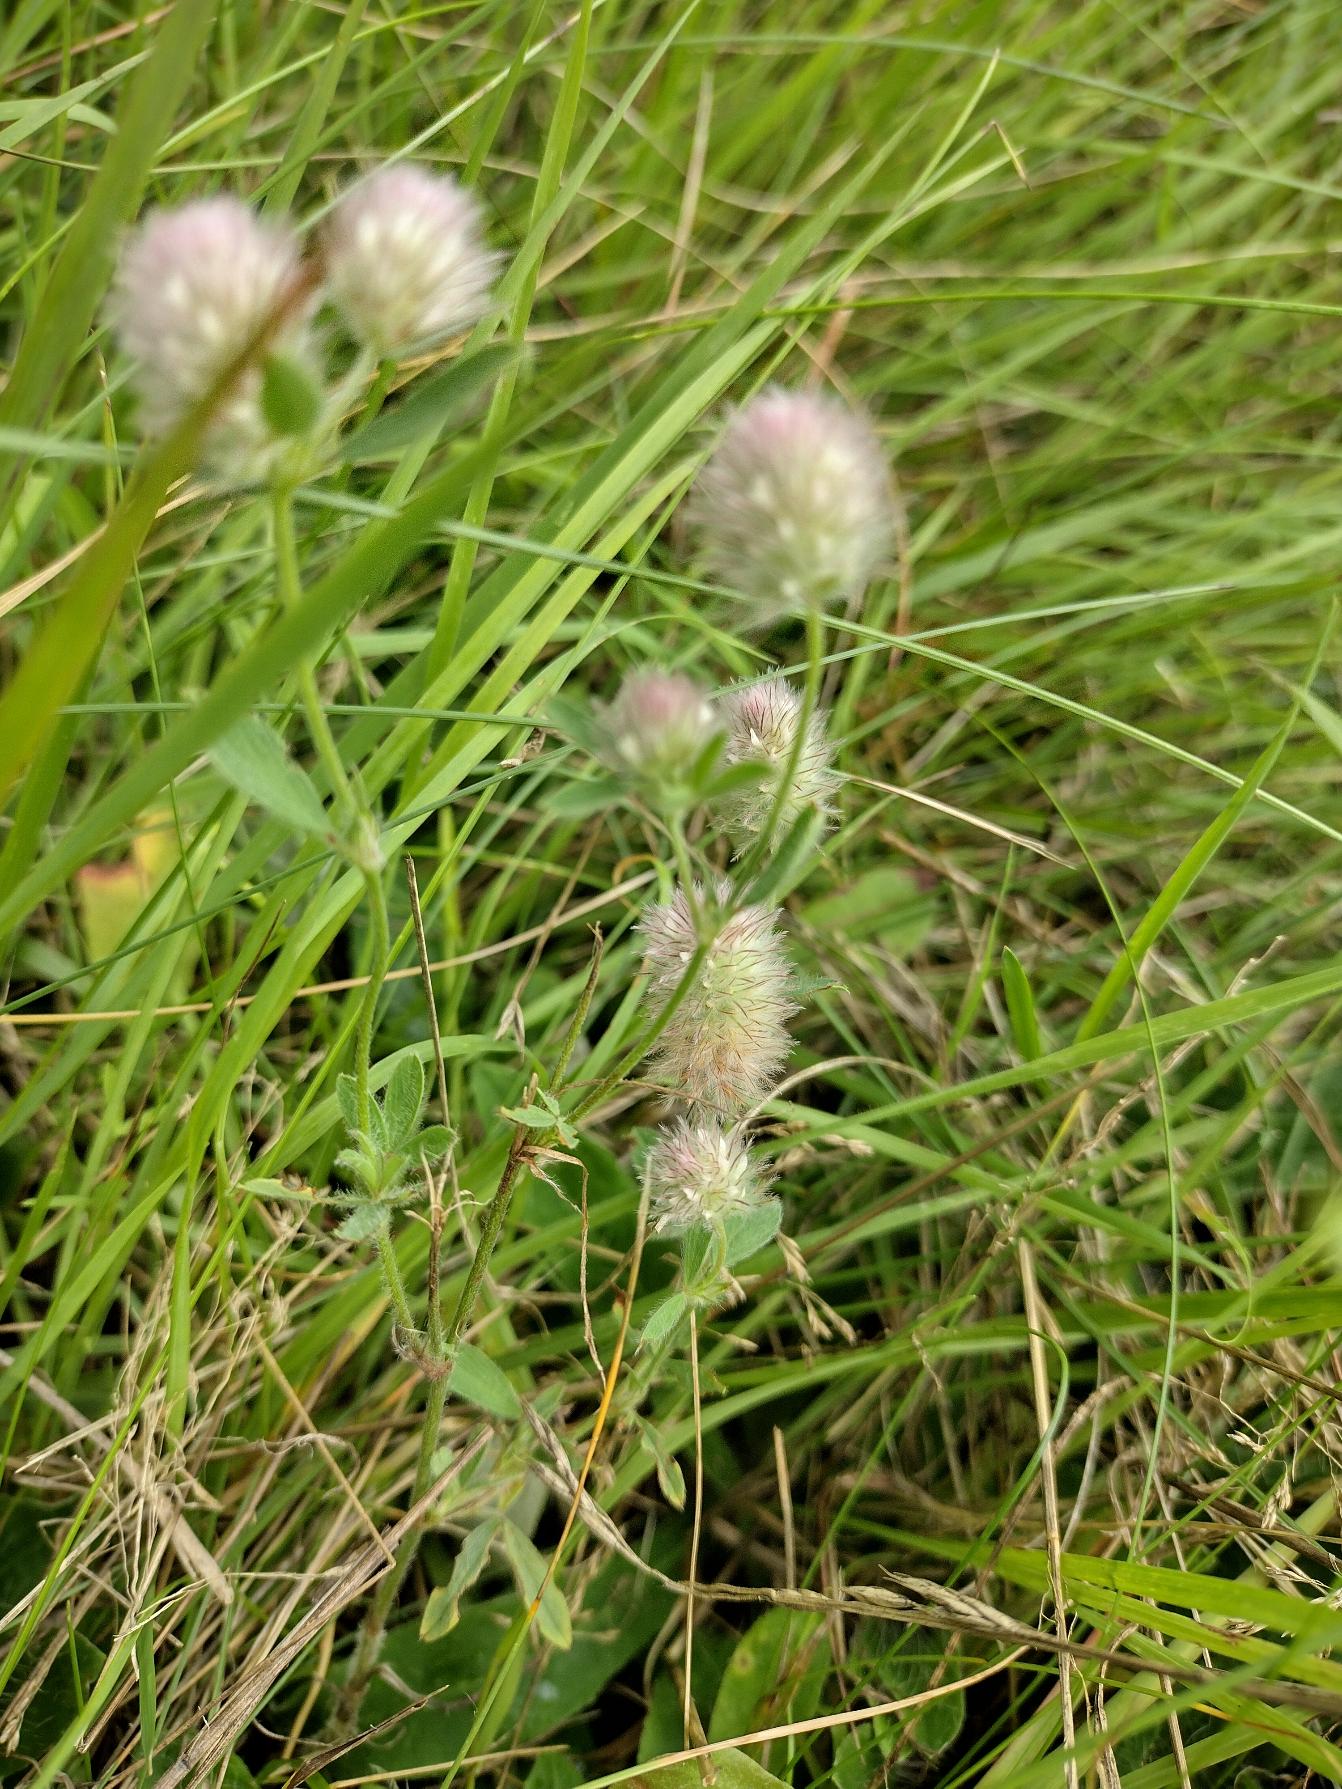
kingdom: Plantae
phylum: Tracheophyta
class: Magnoliopsida
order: Fabales
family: Fabaceae
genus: Trifolium
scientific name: Trifolium arvense
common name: Hare-kløver
